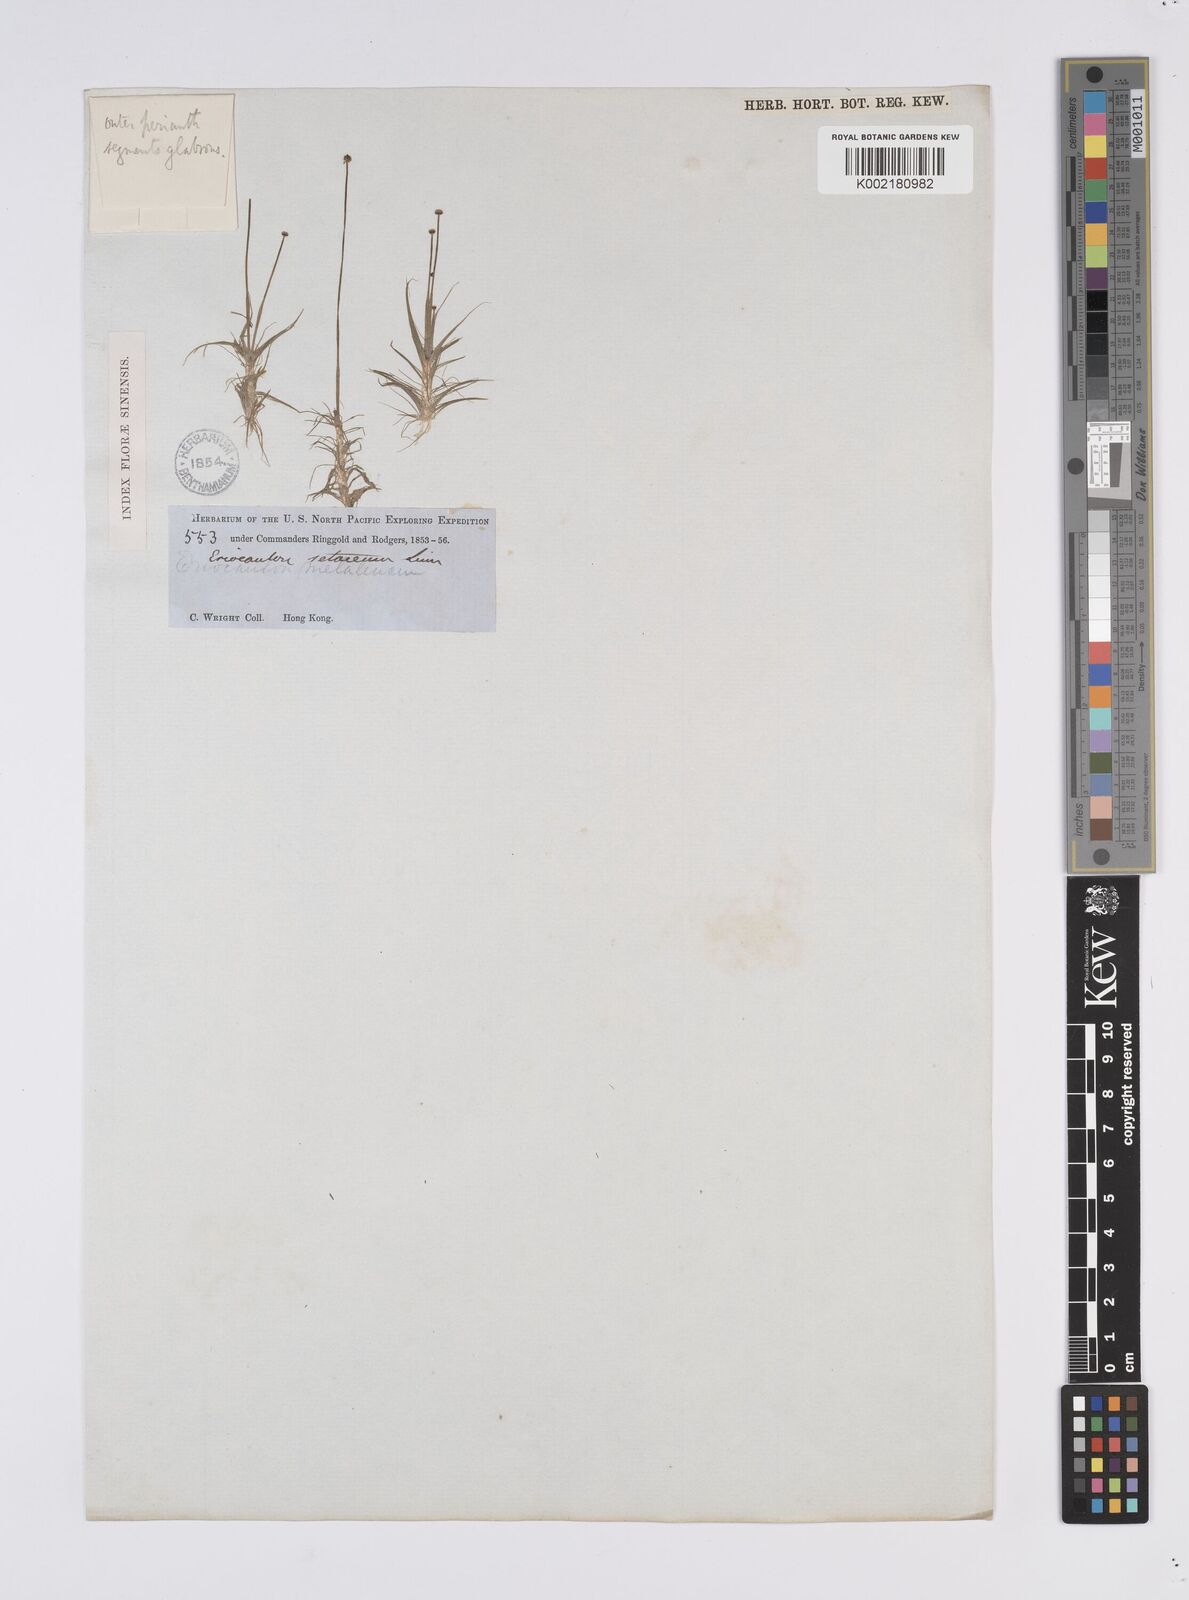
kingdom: Plantae
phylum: Tracheophyta
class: Liliopsida
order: Poales
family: Eriocaulaceae
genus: Eriocaulon
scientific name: Eriocaulon setaceum
